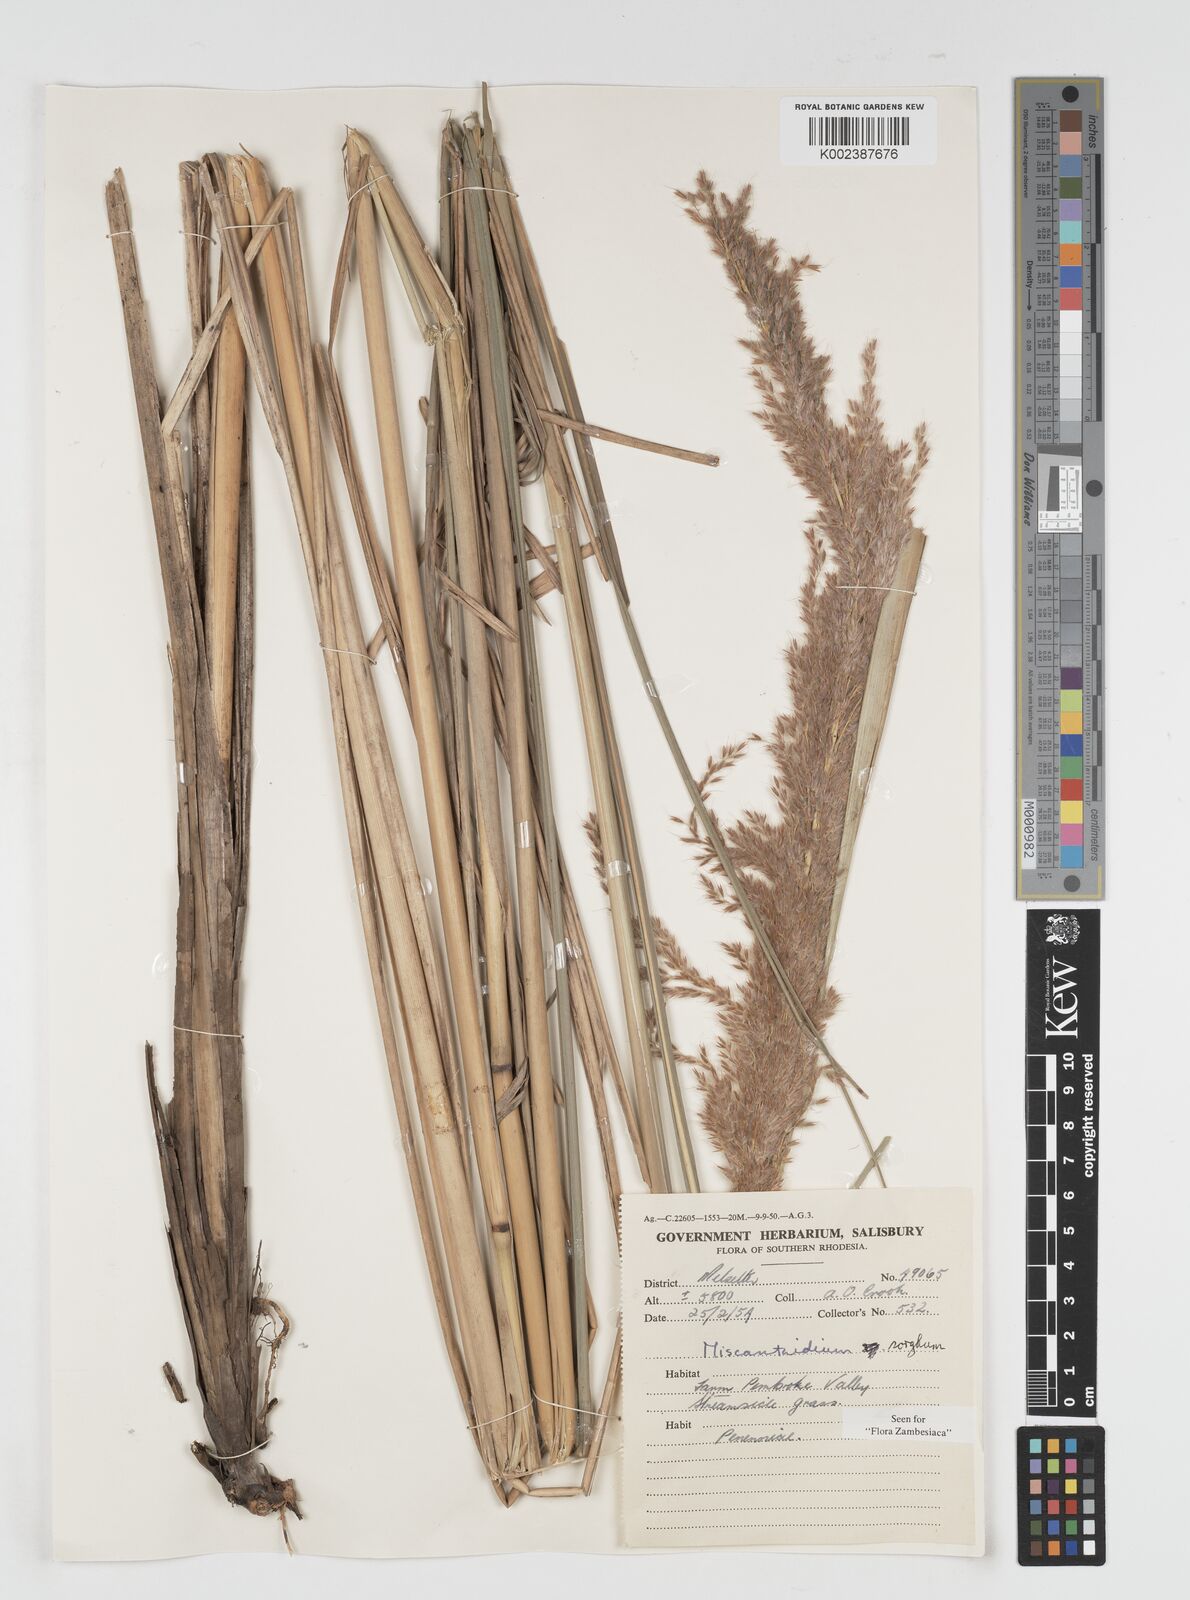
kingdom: Plantae
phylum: Tracheophyta
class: Liliopsida
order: Poales
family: Poaceae
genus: Miscanthus
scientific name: Miscanthus ecklonii
